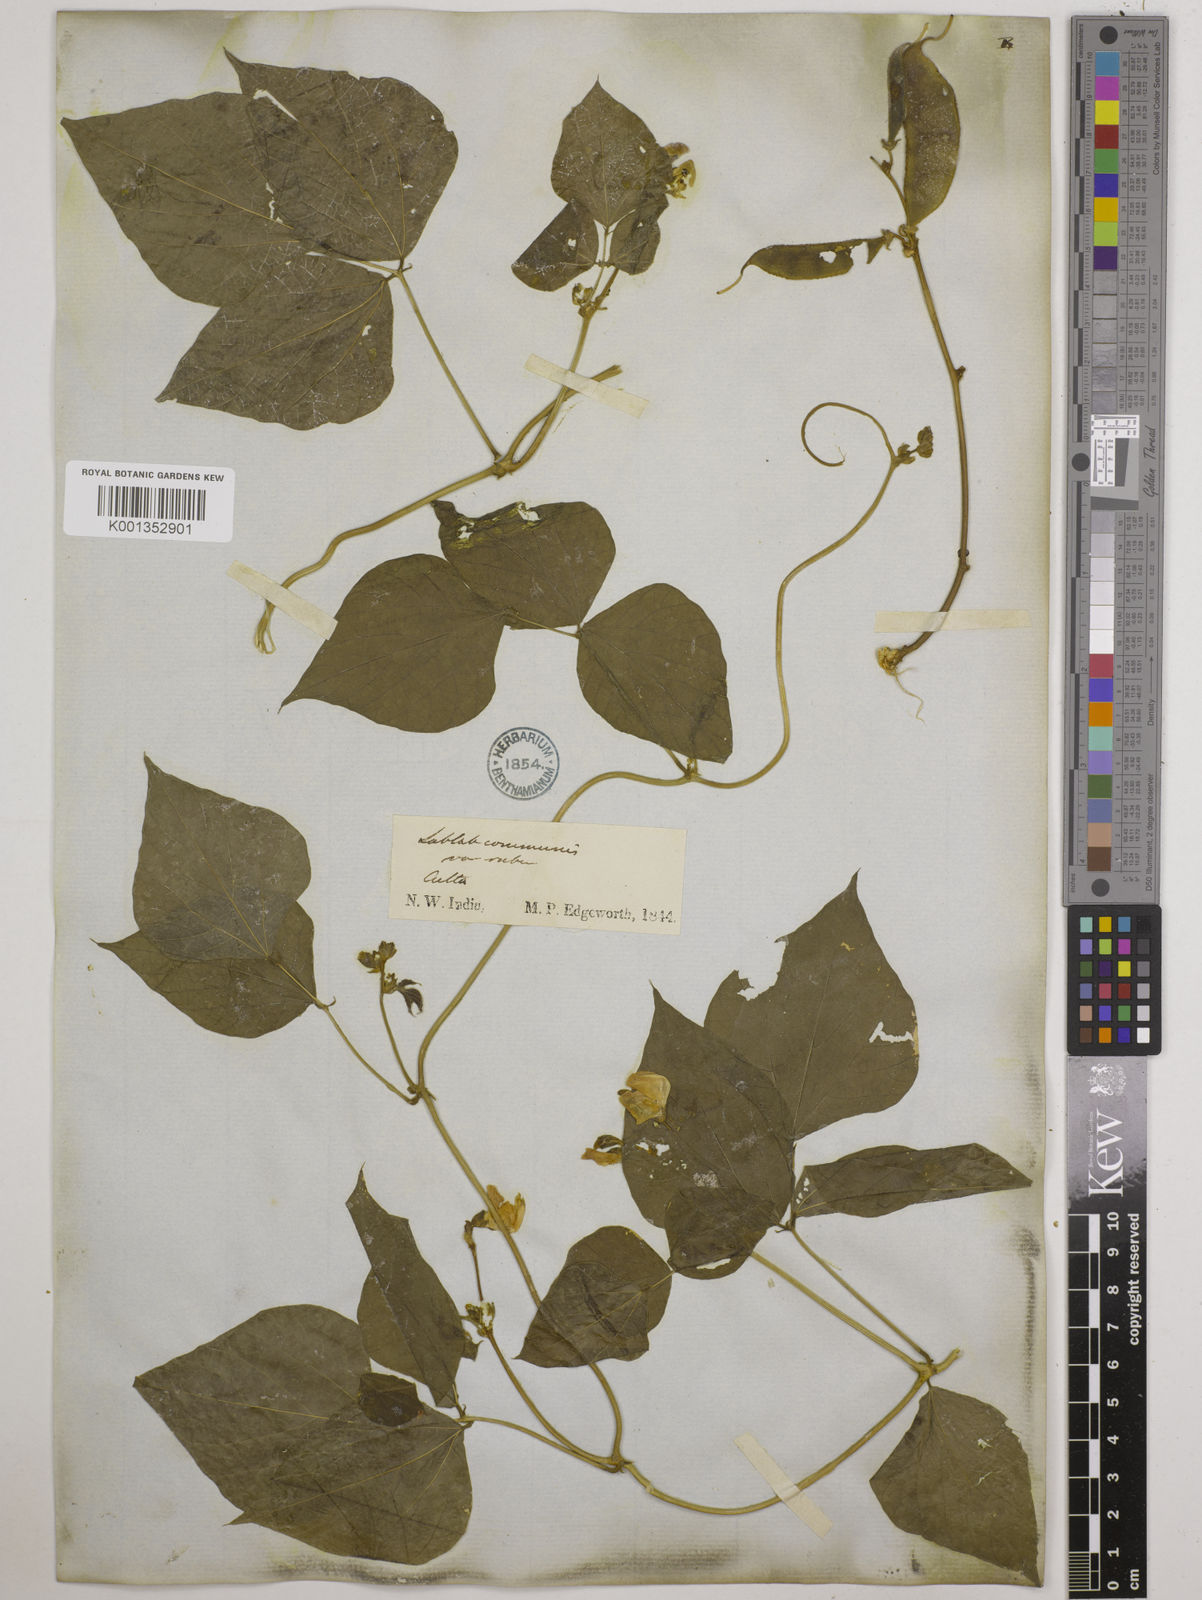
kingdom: Plantae
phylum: Tracheophyta
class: Magnoliopsida
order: Fabales
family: Fabaceae
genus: Lablab
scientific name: Lablab purpureus
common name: Lablab-bean
